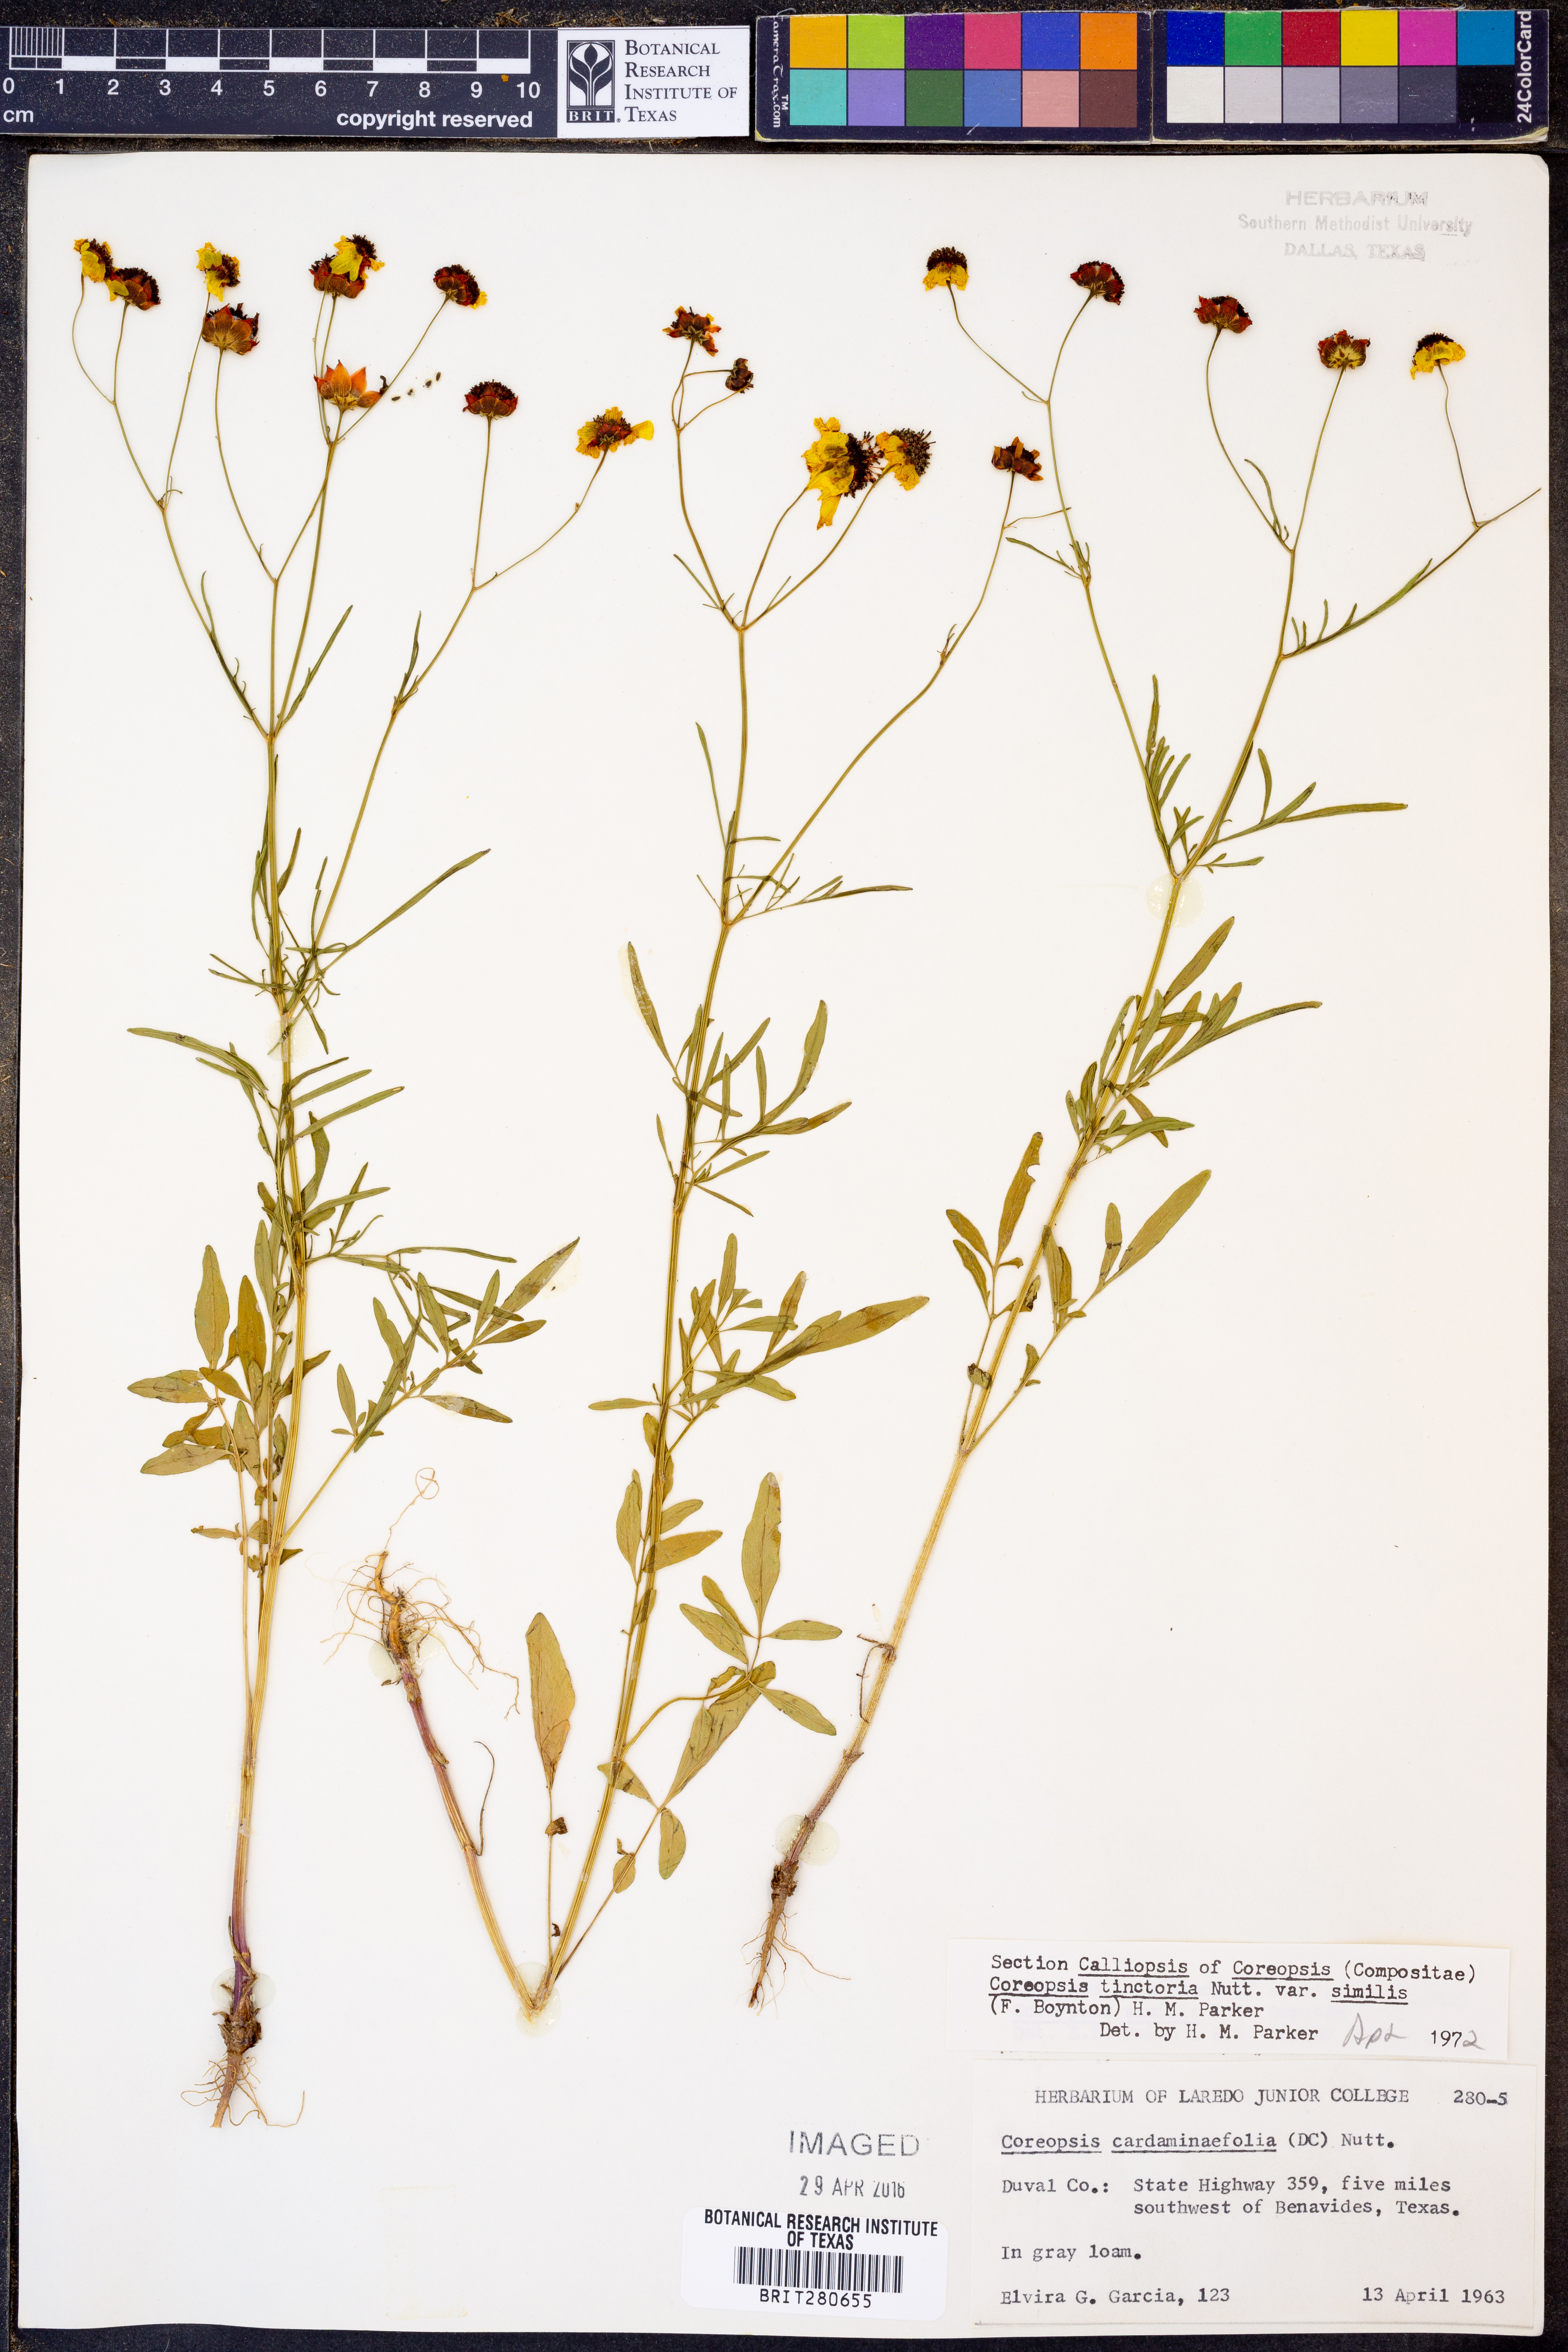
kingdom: Plantae
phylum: Tracheophyta
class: Magnoliopsida
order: Asterales
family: Asteraceae
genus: Coreopsis
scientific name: Coreopsis tinctoria
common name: Garden tickseed
